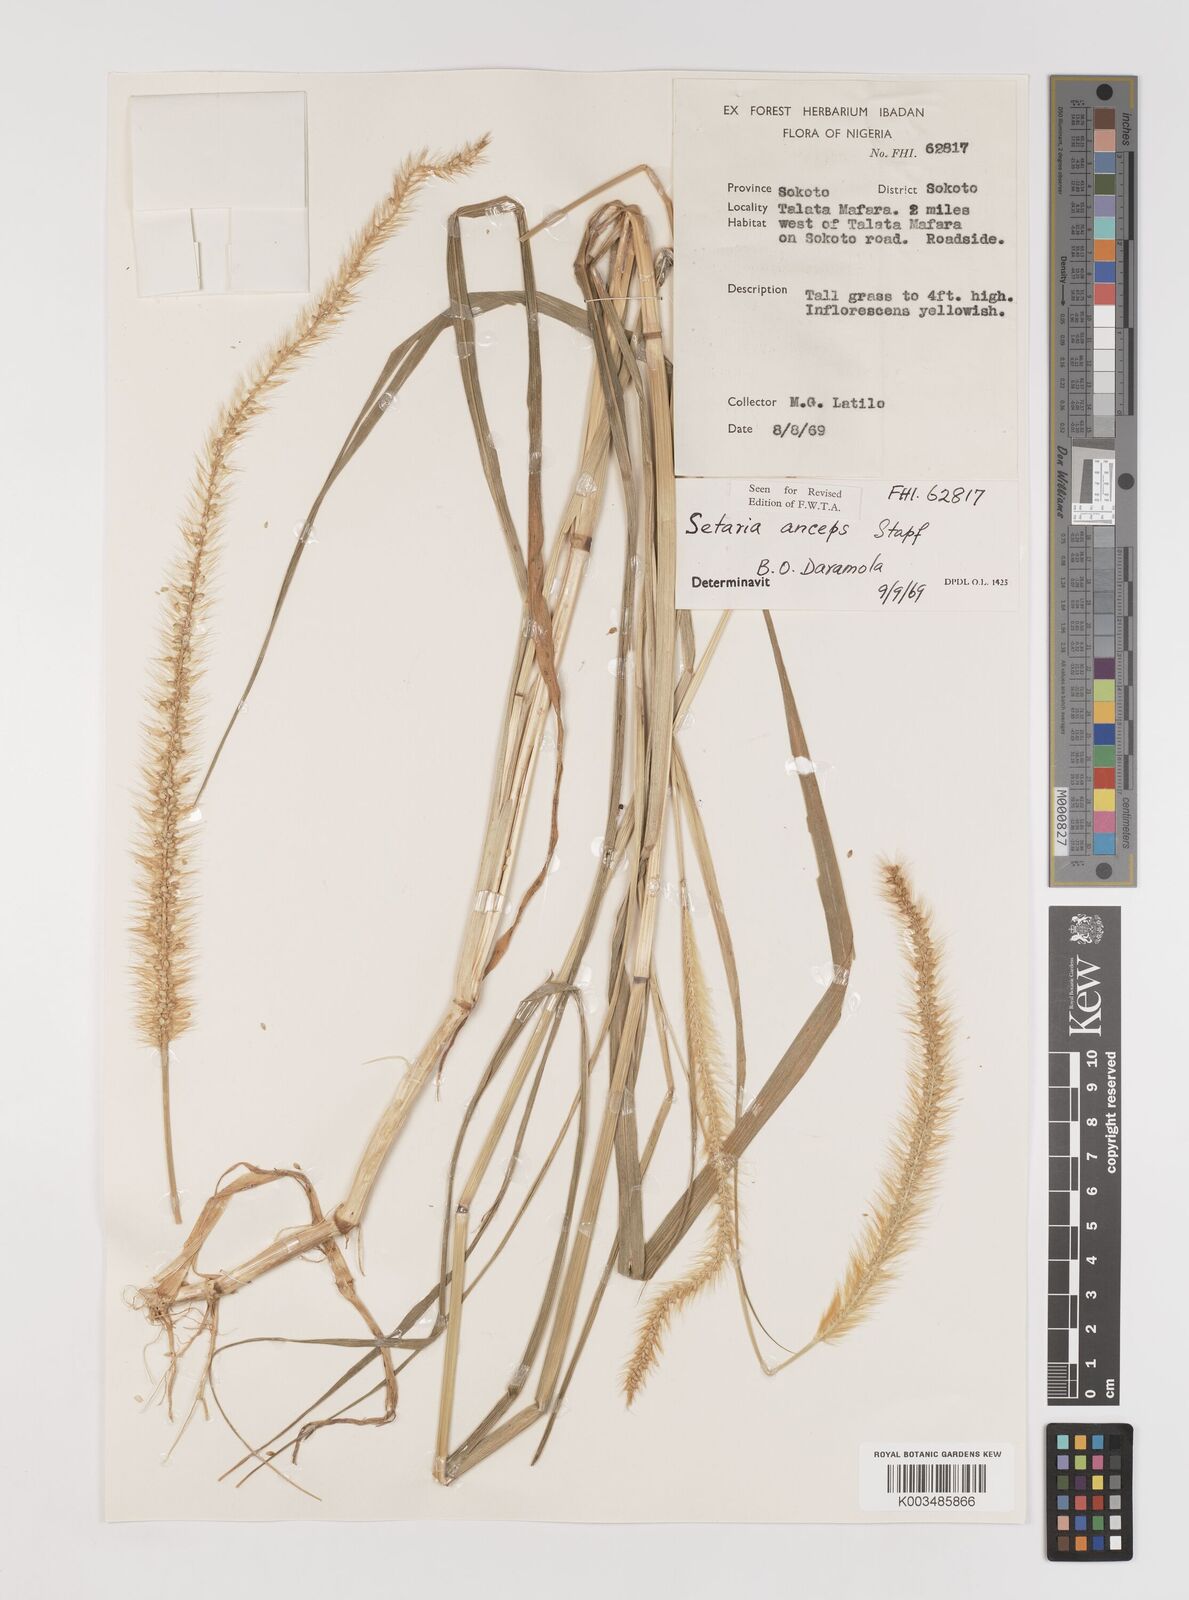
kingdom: Plantae
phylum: Tracheophyta
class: Liliopsida
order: Poales
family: Poaceae
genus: Setaria
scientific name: Setaria sphacelata
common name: African bristlegrass
